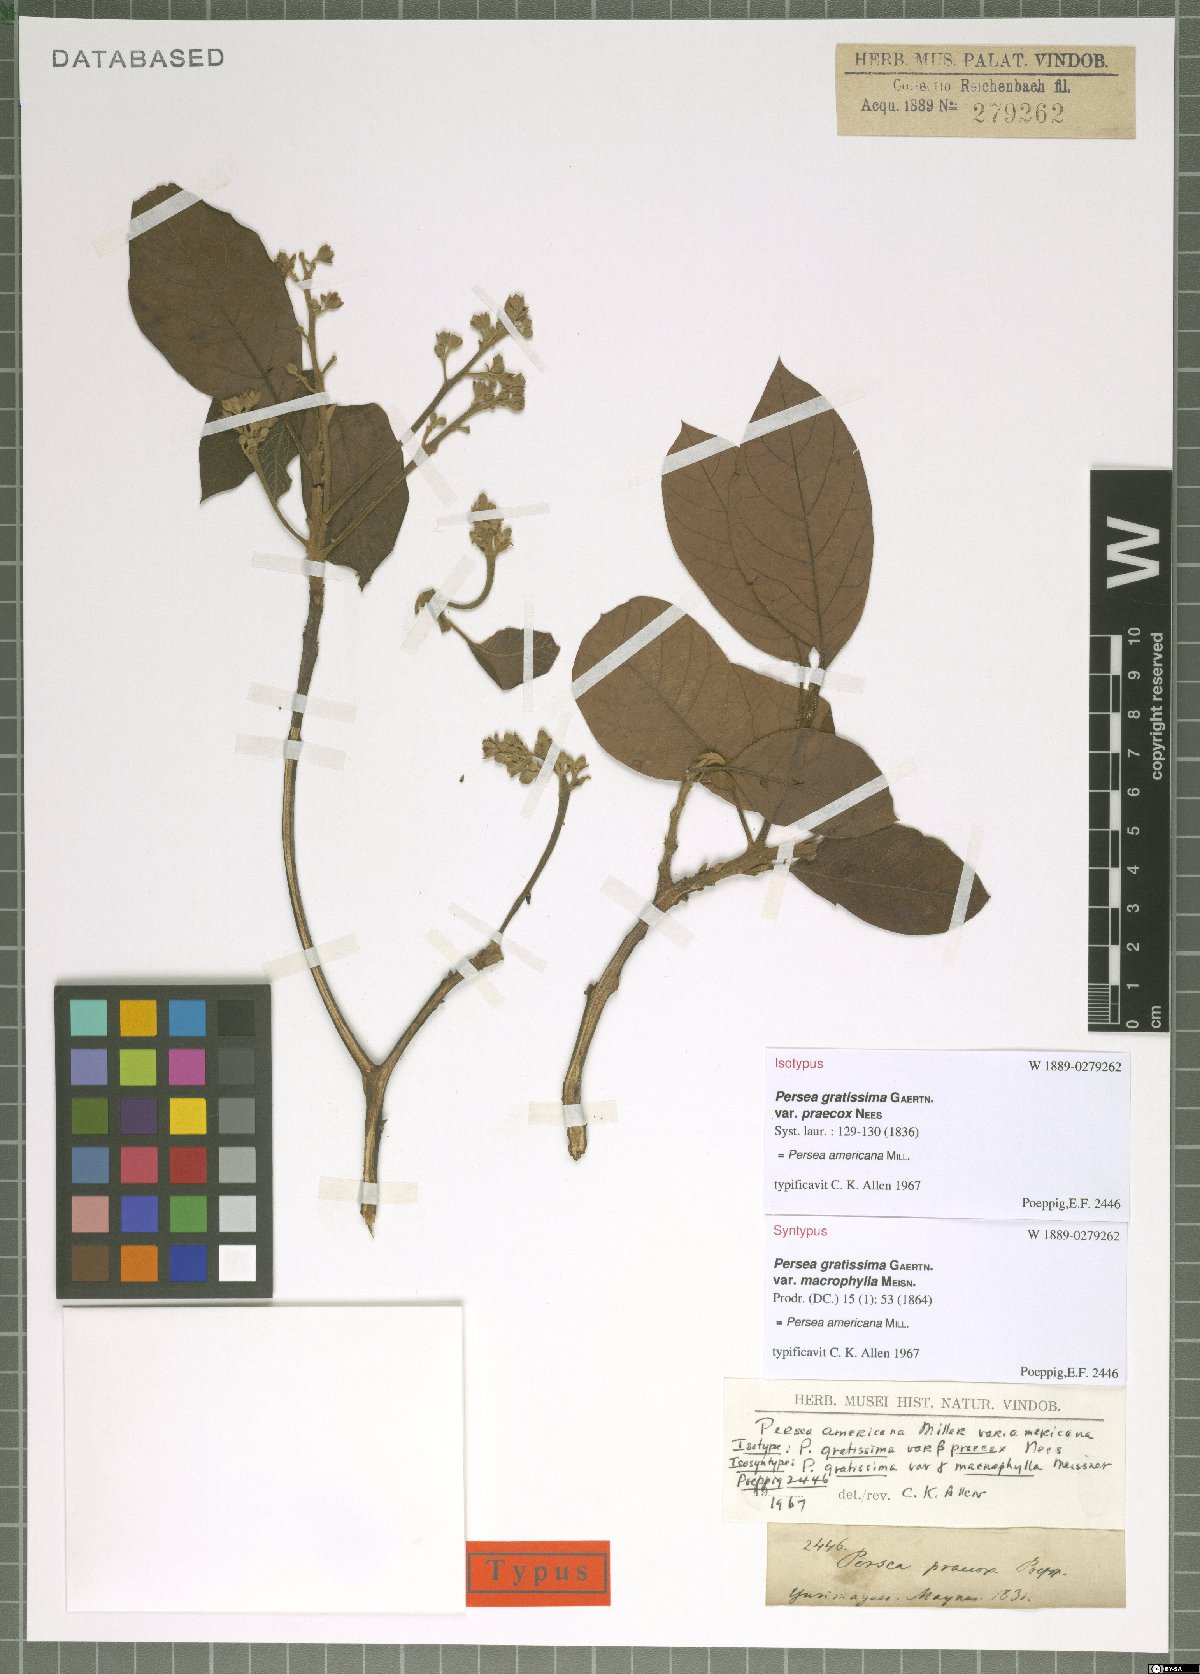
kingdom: Plantae
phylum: Tracheophyta
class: Magnoliopsida
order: Laurales
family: Lauraceae
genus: Persea
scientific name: Persea americana
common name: Avocado
